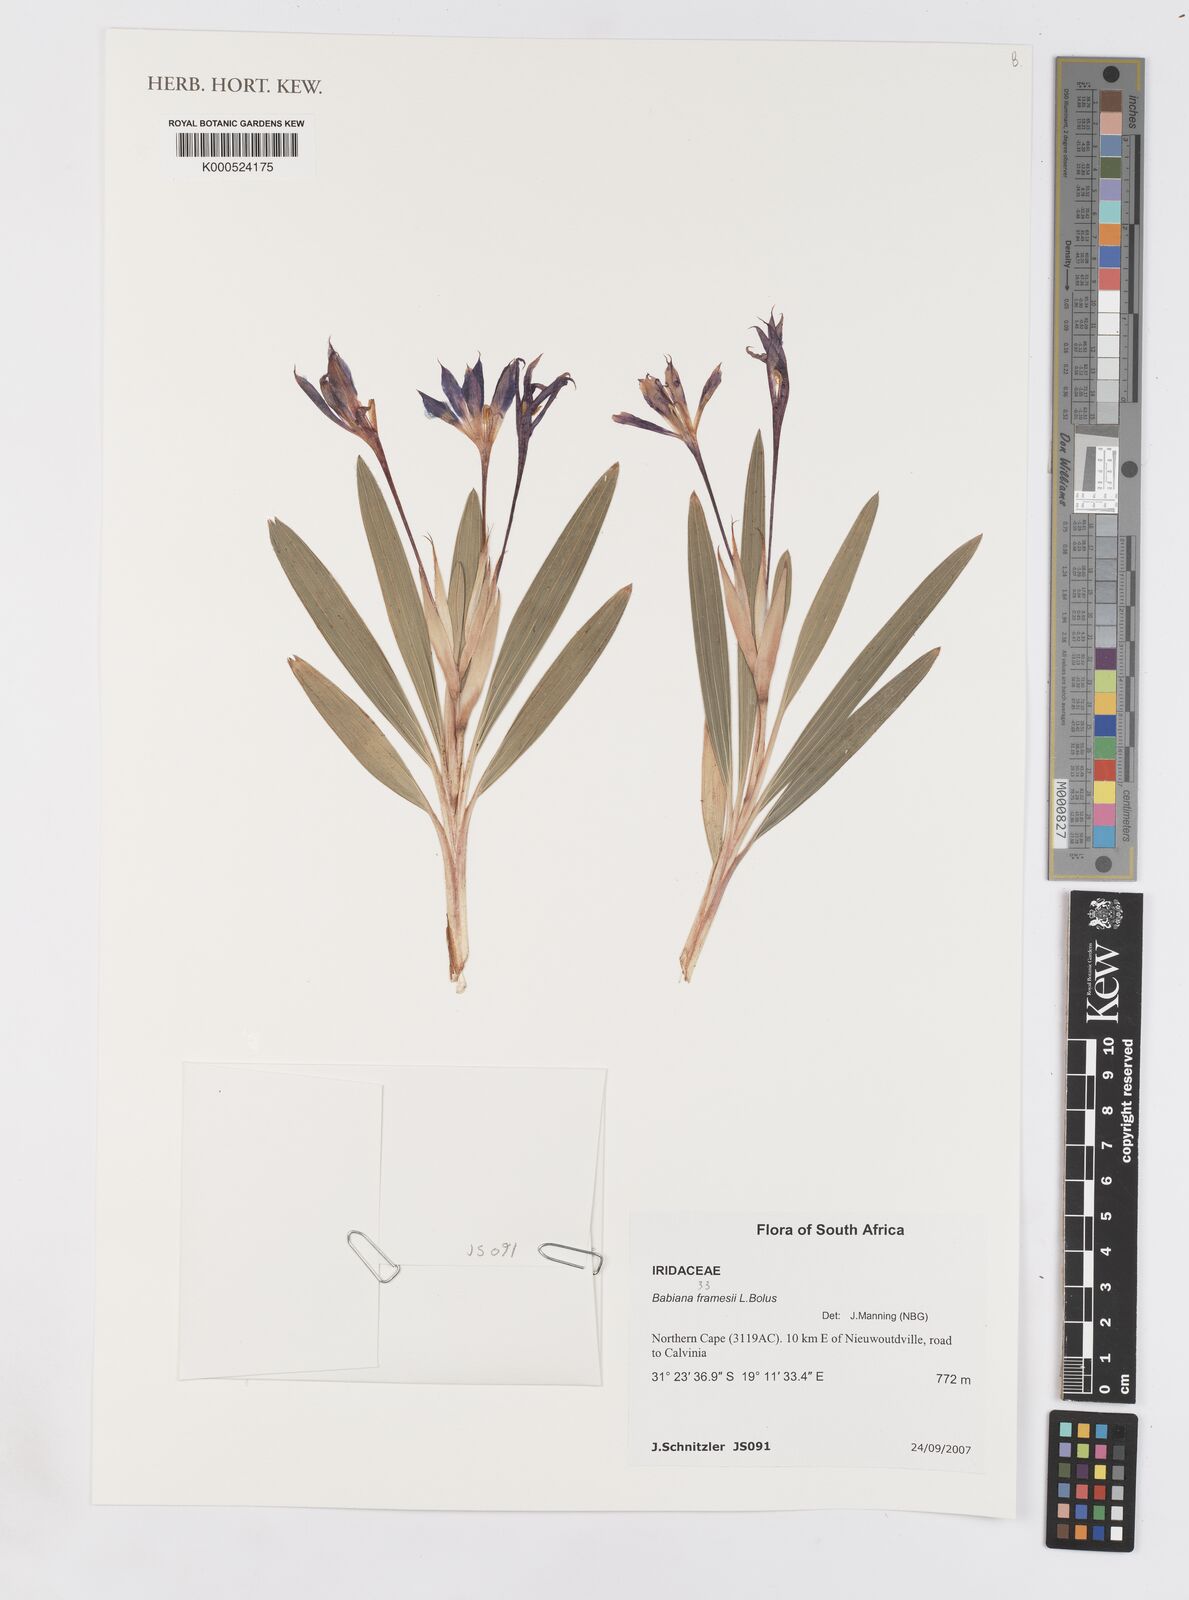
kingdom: Plantae
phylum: Tracheophyta
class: Liliopsida
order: Asparagales
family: Iridaceae
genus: Babiana
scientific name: Babiana framesii
